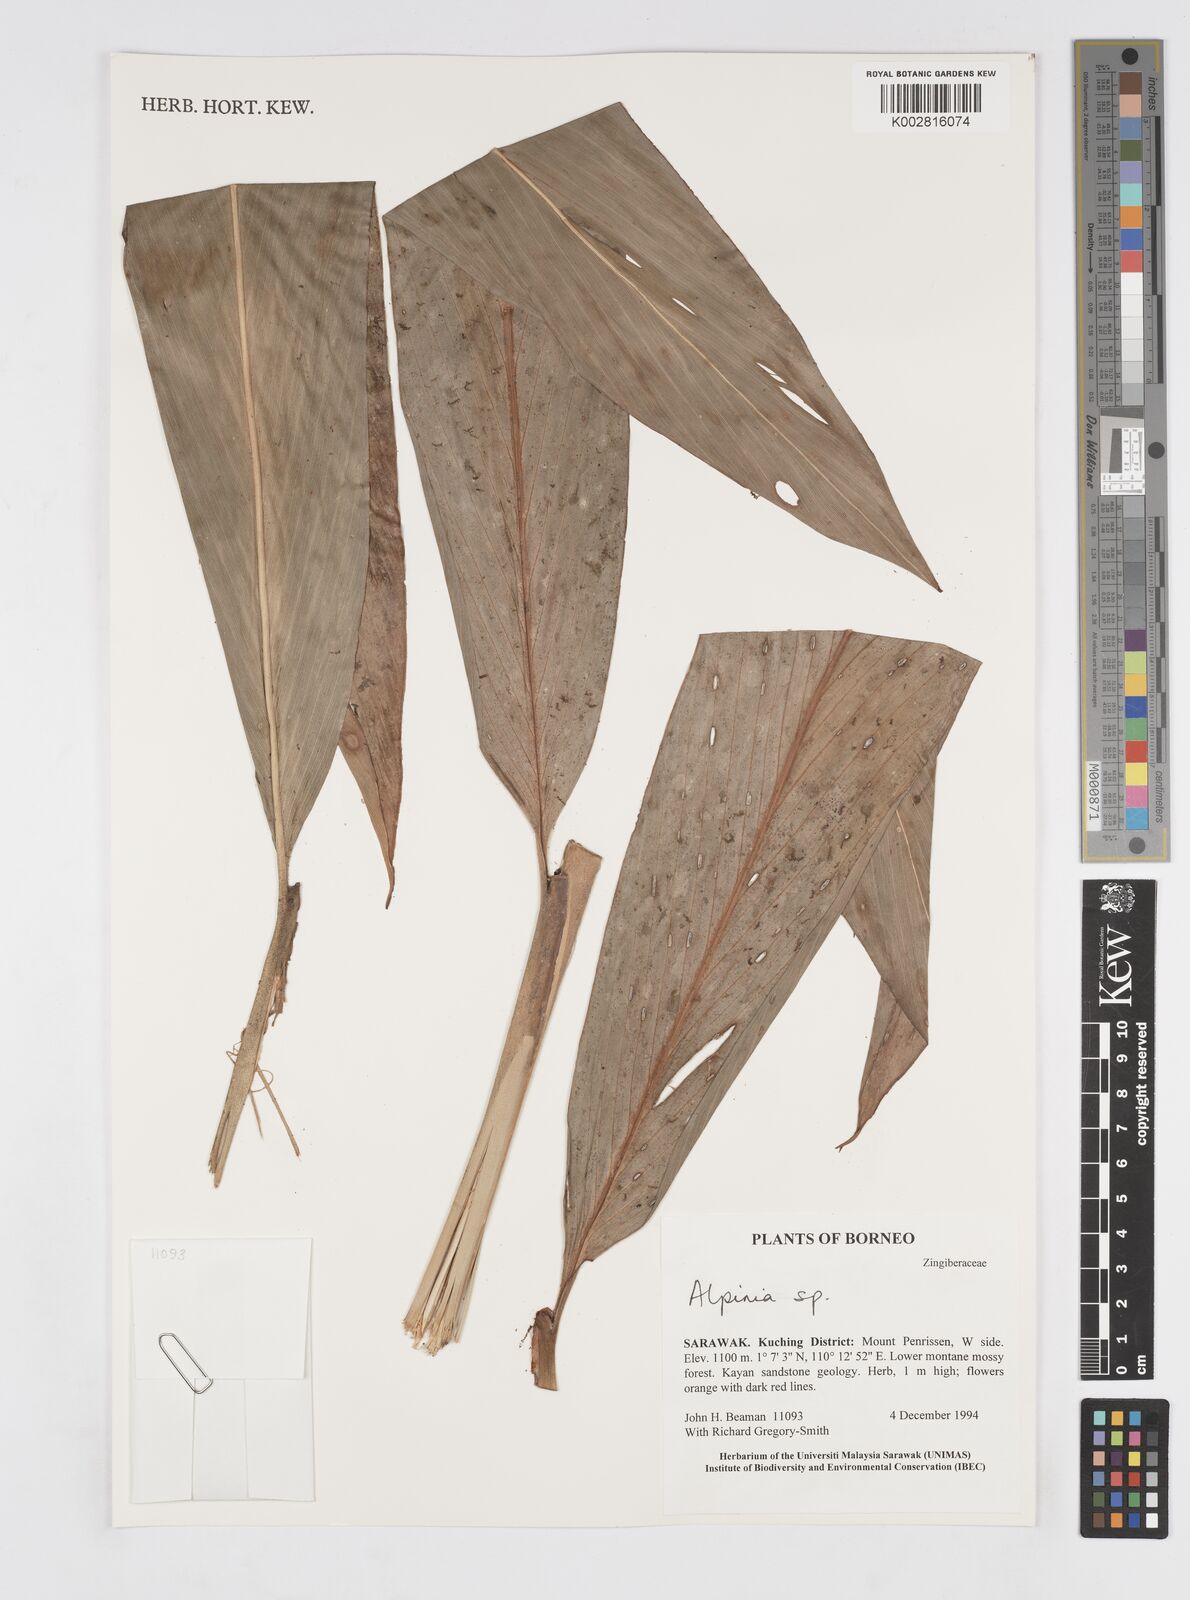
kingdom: Plantae
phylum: Tracheophyta
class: Liliopsida
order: Zingiberales
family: Zingiberaceae
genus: Alpinia
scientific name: Alpinia
